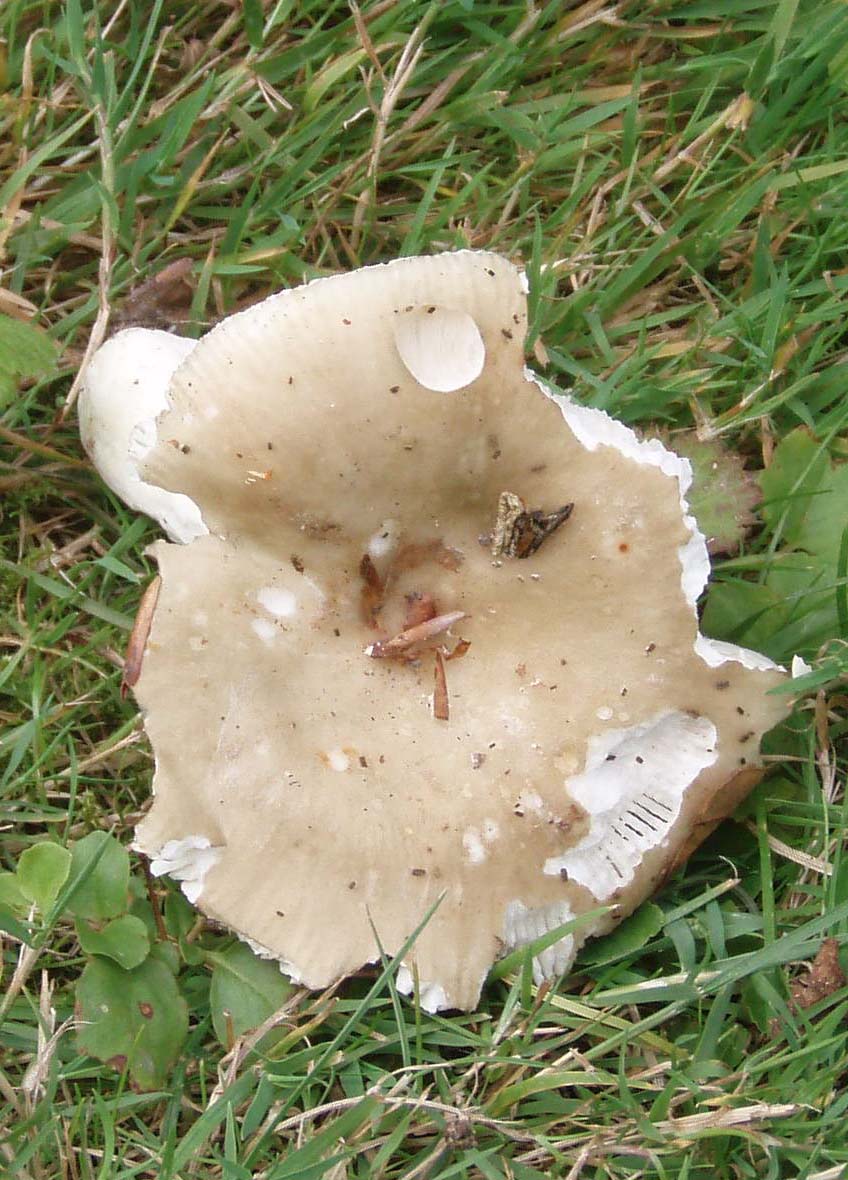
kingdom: Fungi
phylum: Basidiomycota
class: Agaricomycetes
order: Russulales
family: Russulaceae
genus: Russula
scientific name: Russula faustiana
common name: olivengrå skørhat
